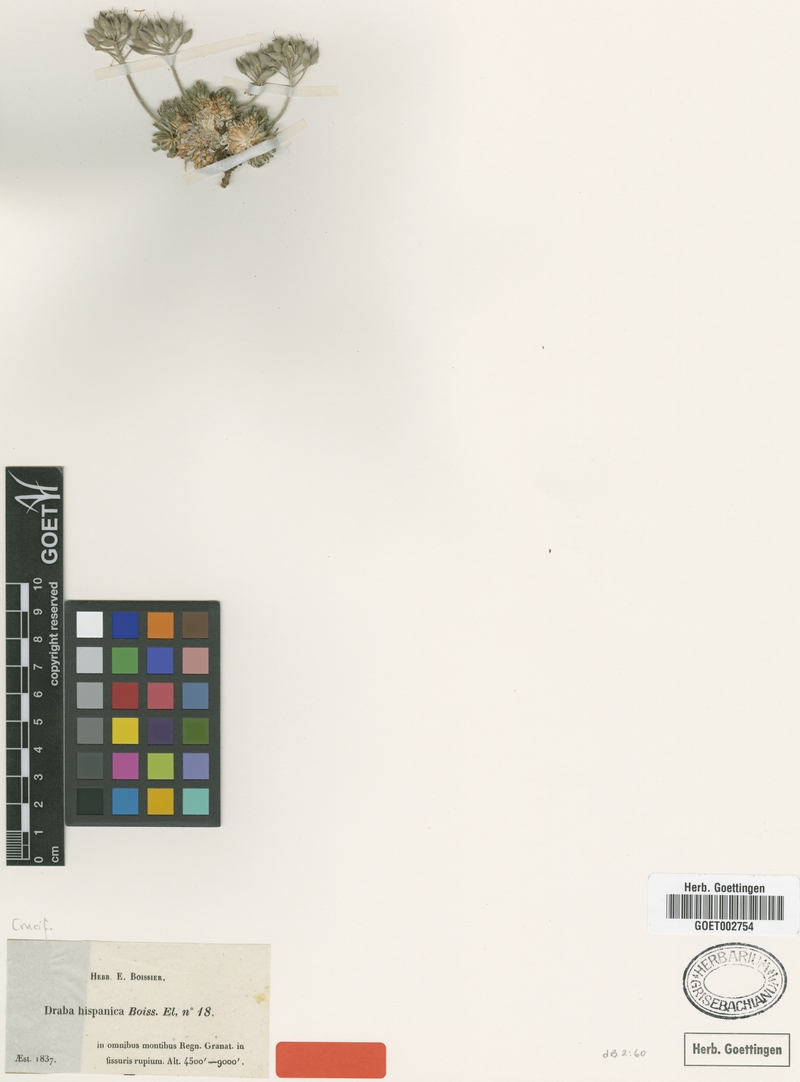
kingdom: Plantae
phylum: Tracheophyta
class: Magnoliopsida
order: Brassicales
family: Brassicaceae
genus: Draba
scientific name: Draba hispanica
